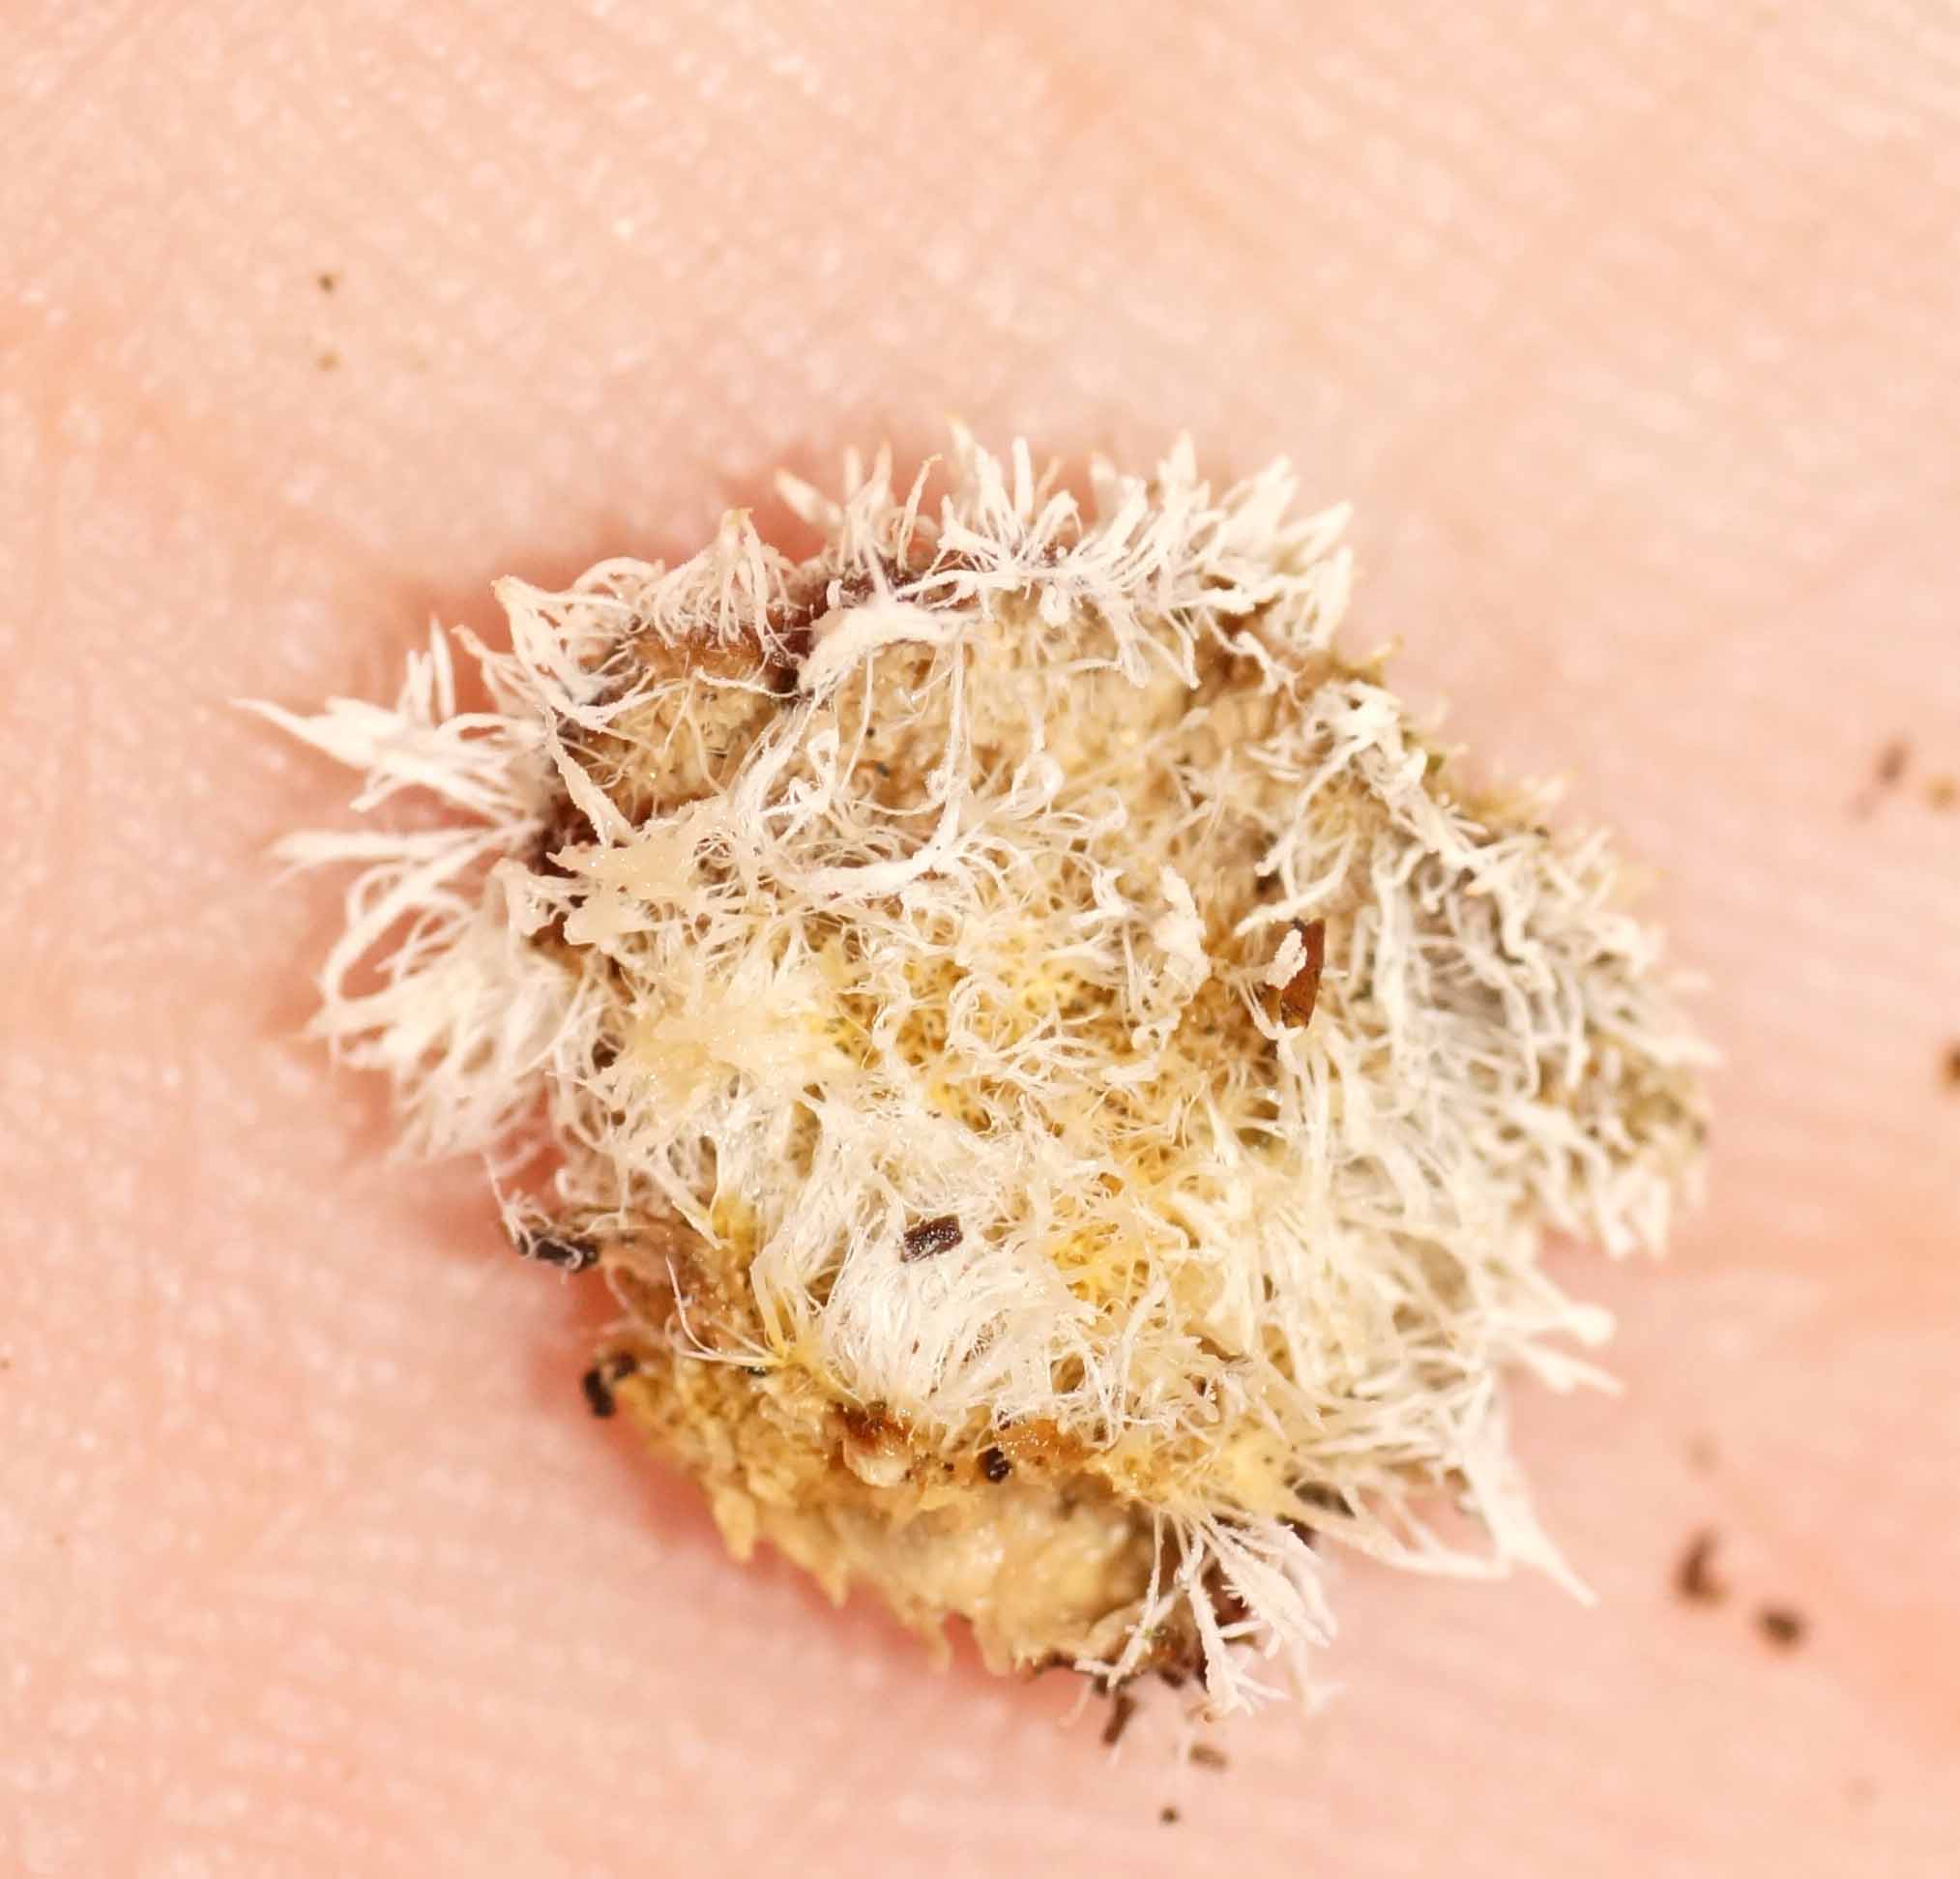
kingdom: Fungi
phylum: Ascomycota
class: Sordariomycetes
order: Hypocreales
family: Tilachlidiaceae
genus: Tilachlidium
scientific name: Tilachlidium brachiatum
